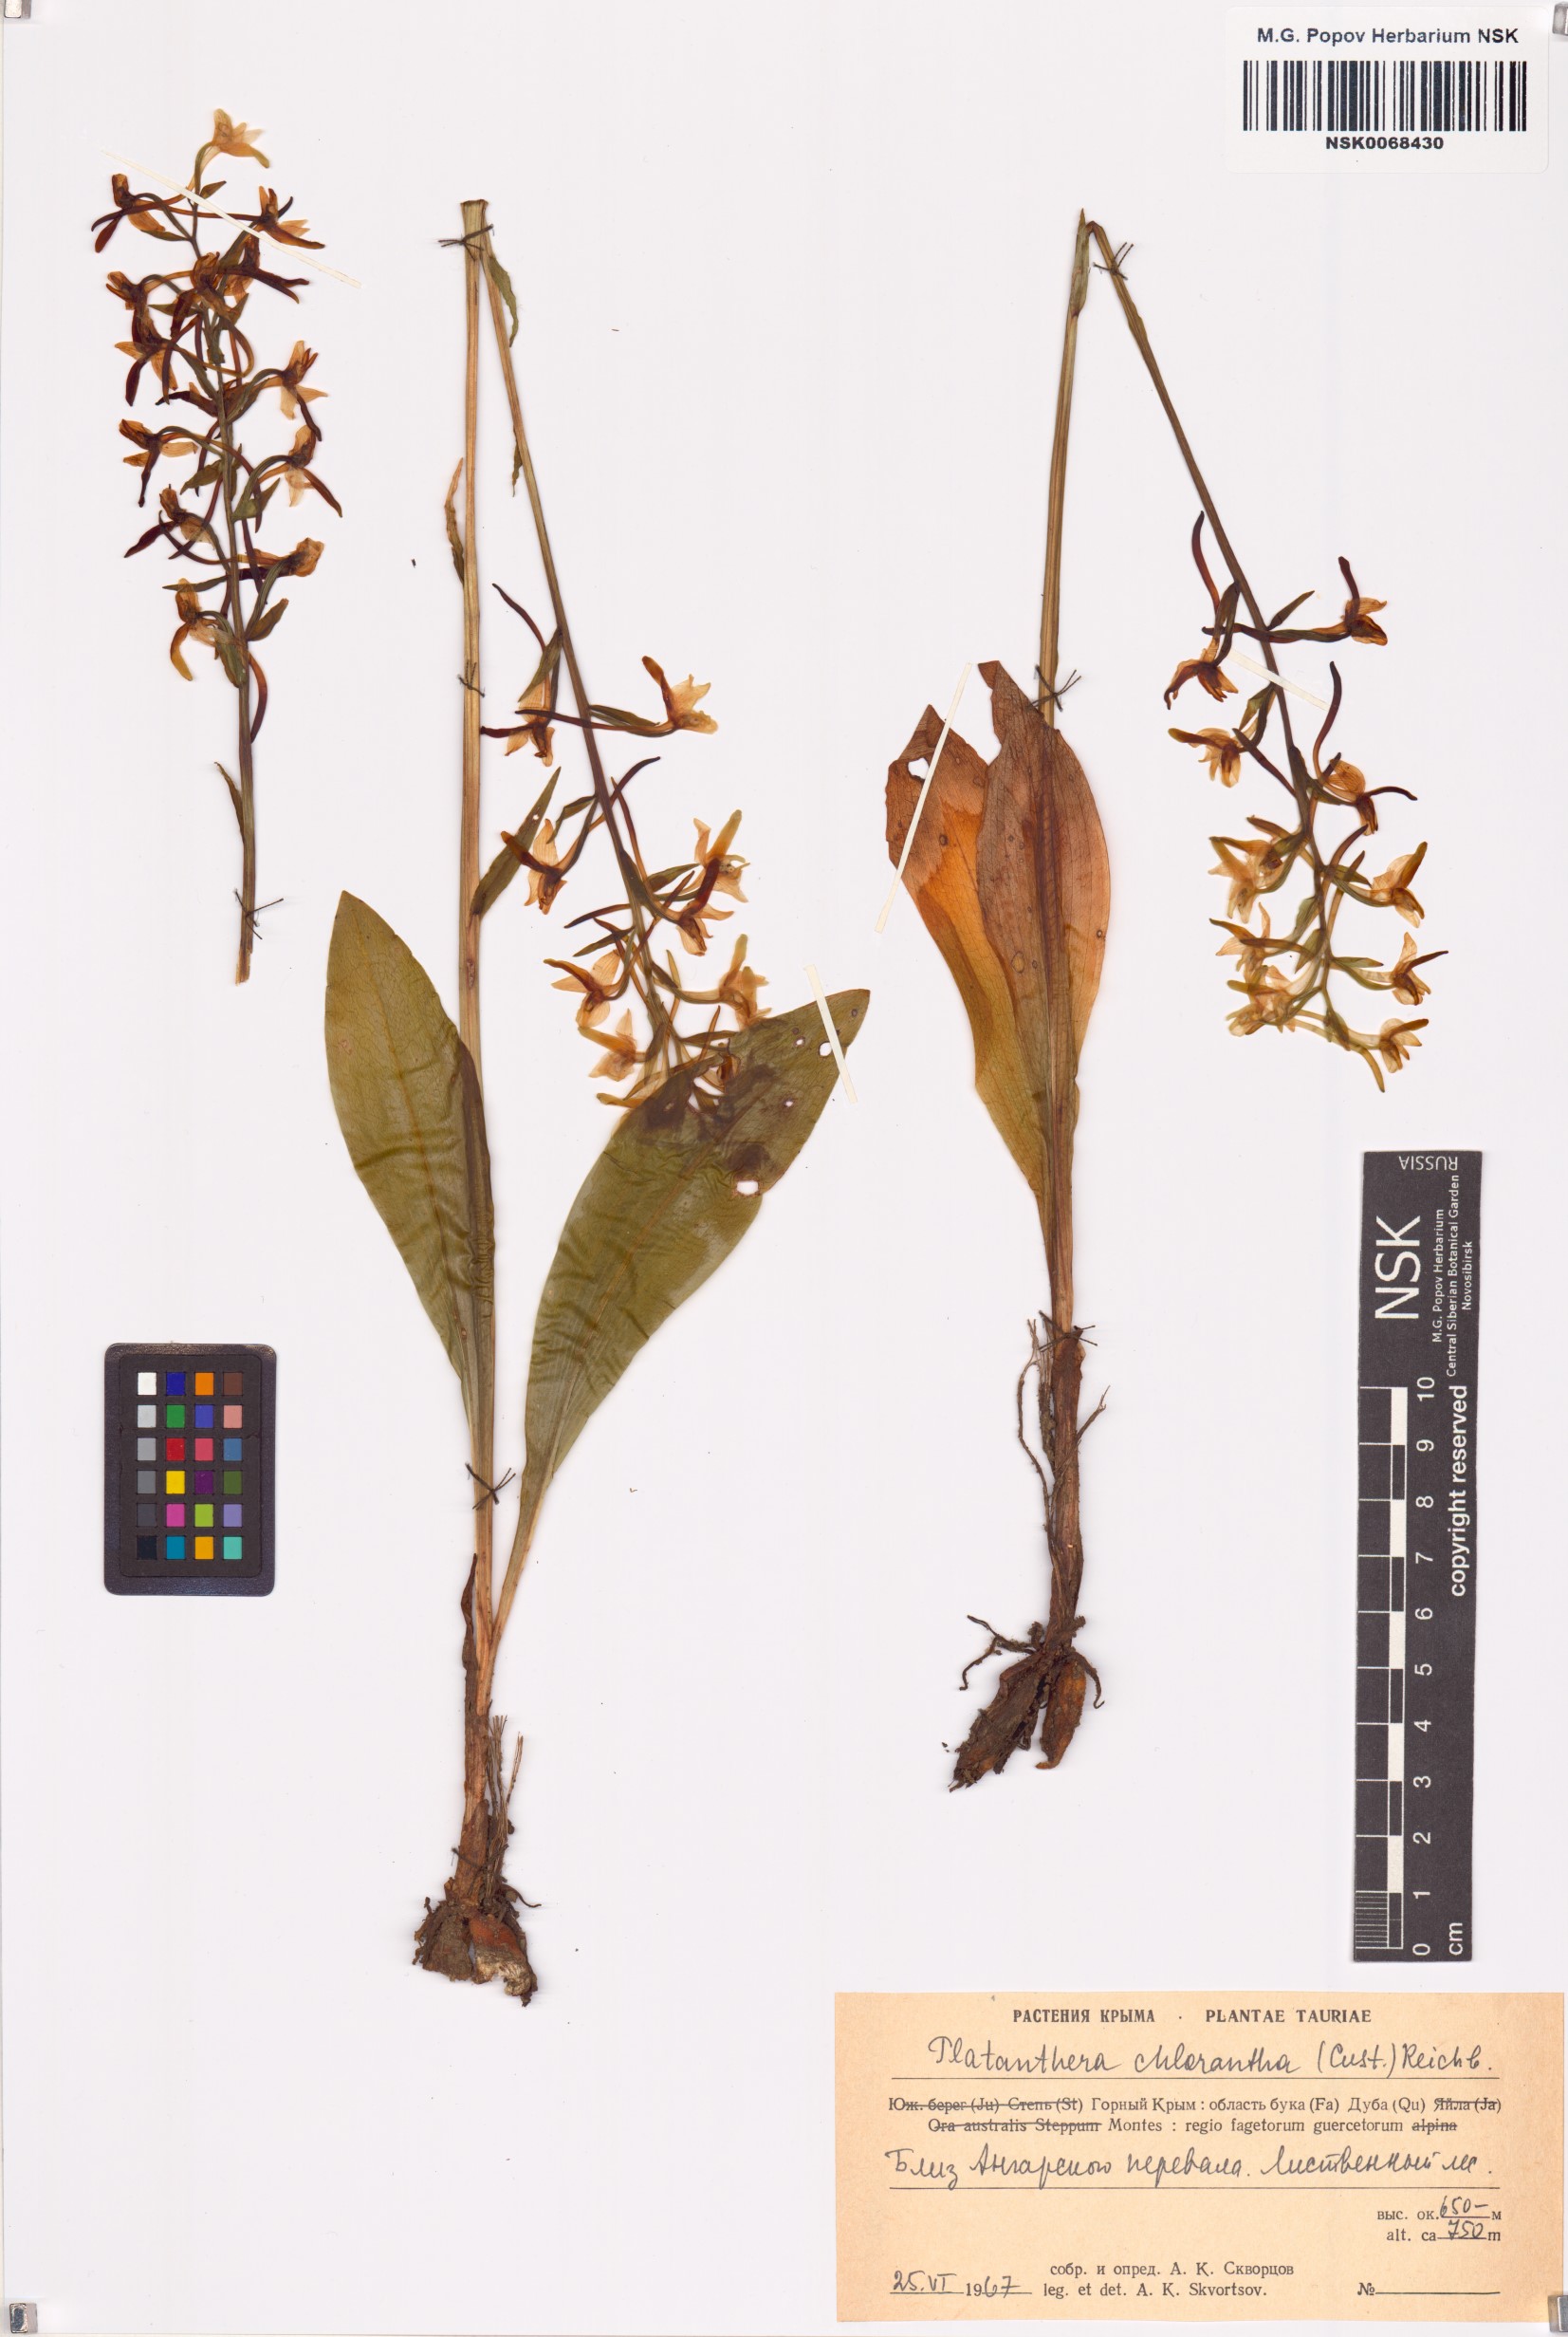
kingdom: Plantae
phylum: Tracheophyta
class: Liliopsida
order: Asparagales
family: Orchidaceae
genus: Platanthera
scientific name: Platanthera chlorantha
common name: Greater butterfly-orchid
